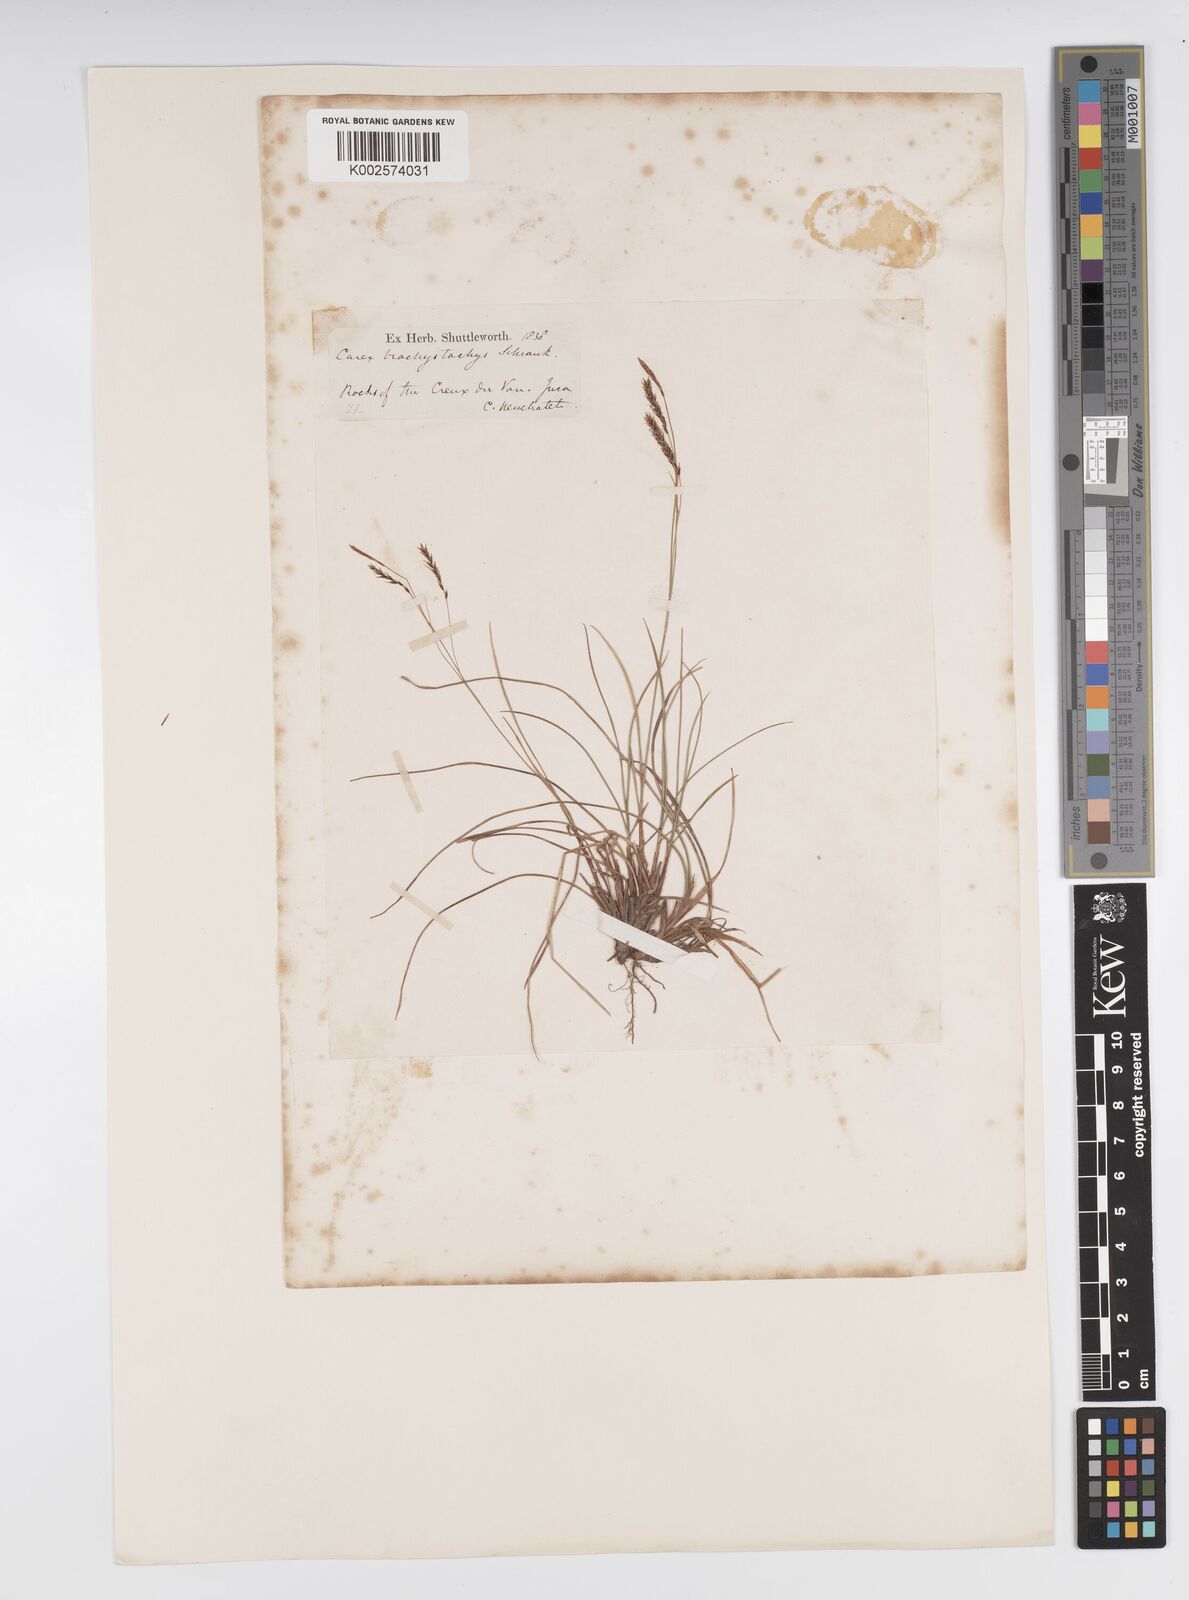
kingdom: Plantae
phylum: Tracheophyta
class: Liliopsida
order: Poales
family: Cyperaceae
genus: Carex
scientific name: Carex brachystachys
